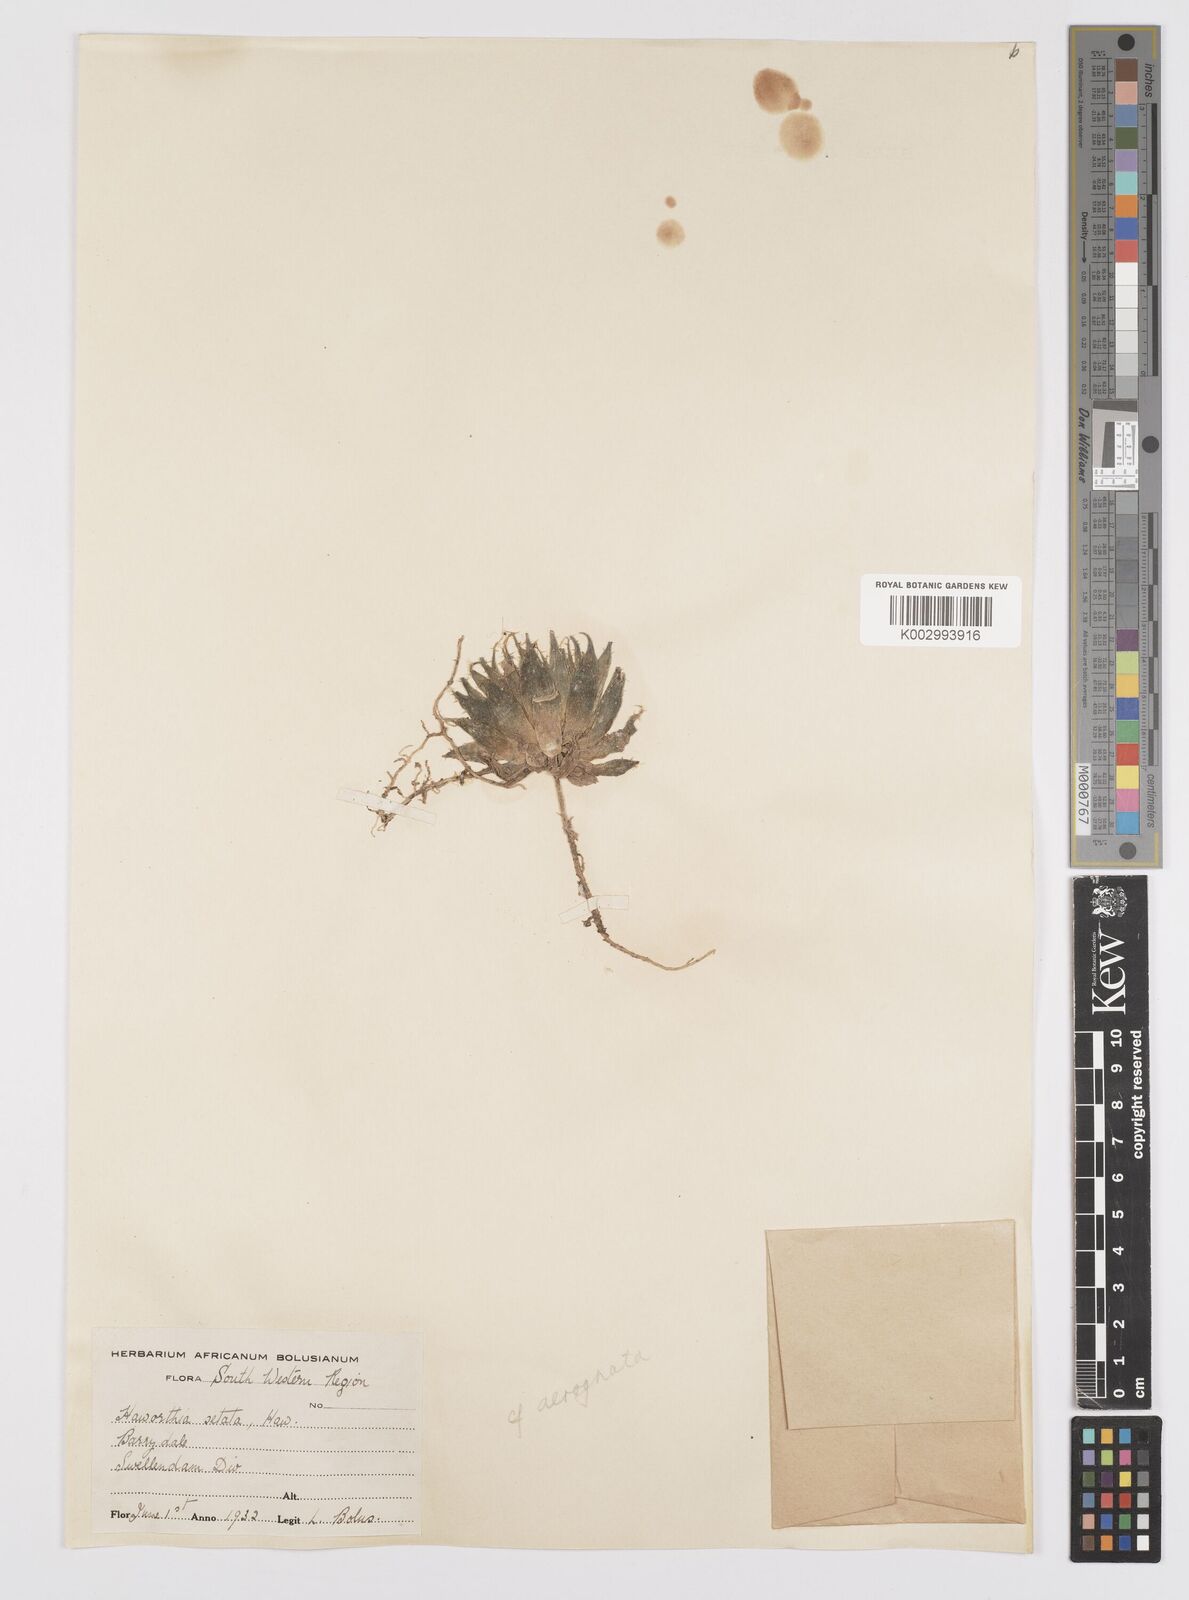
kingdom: Plantae
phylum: Tracheophyta
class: Liliopsida
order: Asparagales
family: Asphodelaceae
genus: Haworthia
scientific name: Haworthia arachnoidea
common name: Cobweb-aloe
